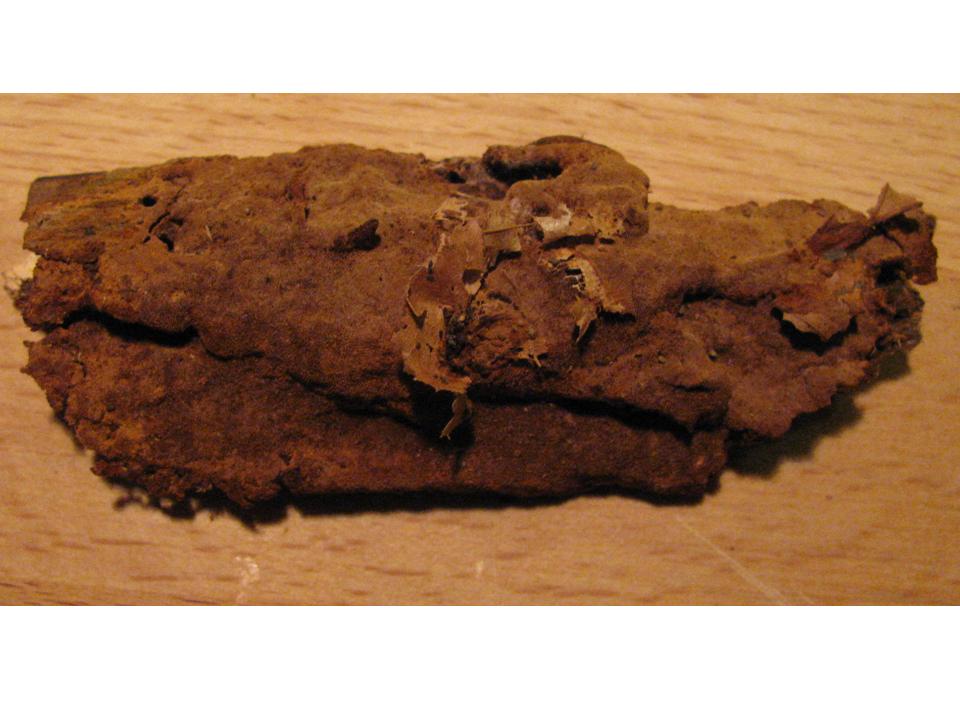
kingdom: Fungi
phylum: Basidiomycota
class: Agaricomycetes
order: Hymenochaetales
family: Hymenochaetaceae
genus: Fuscoporia
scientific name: Fuscoporia ferrea
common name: skorpe-ildporesvamp
